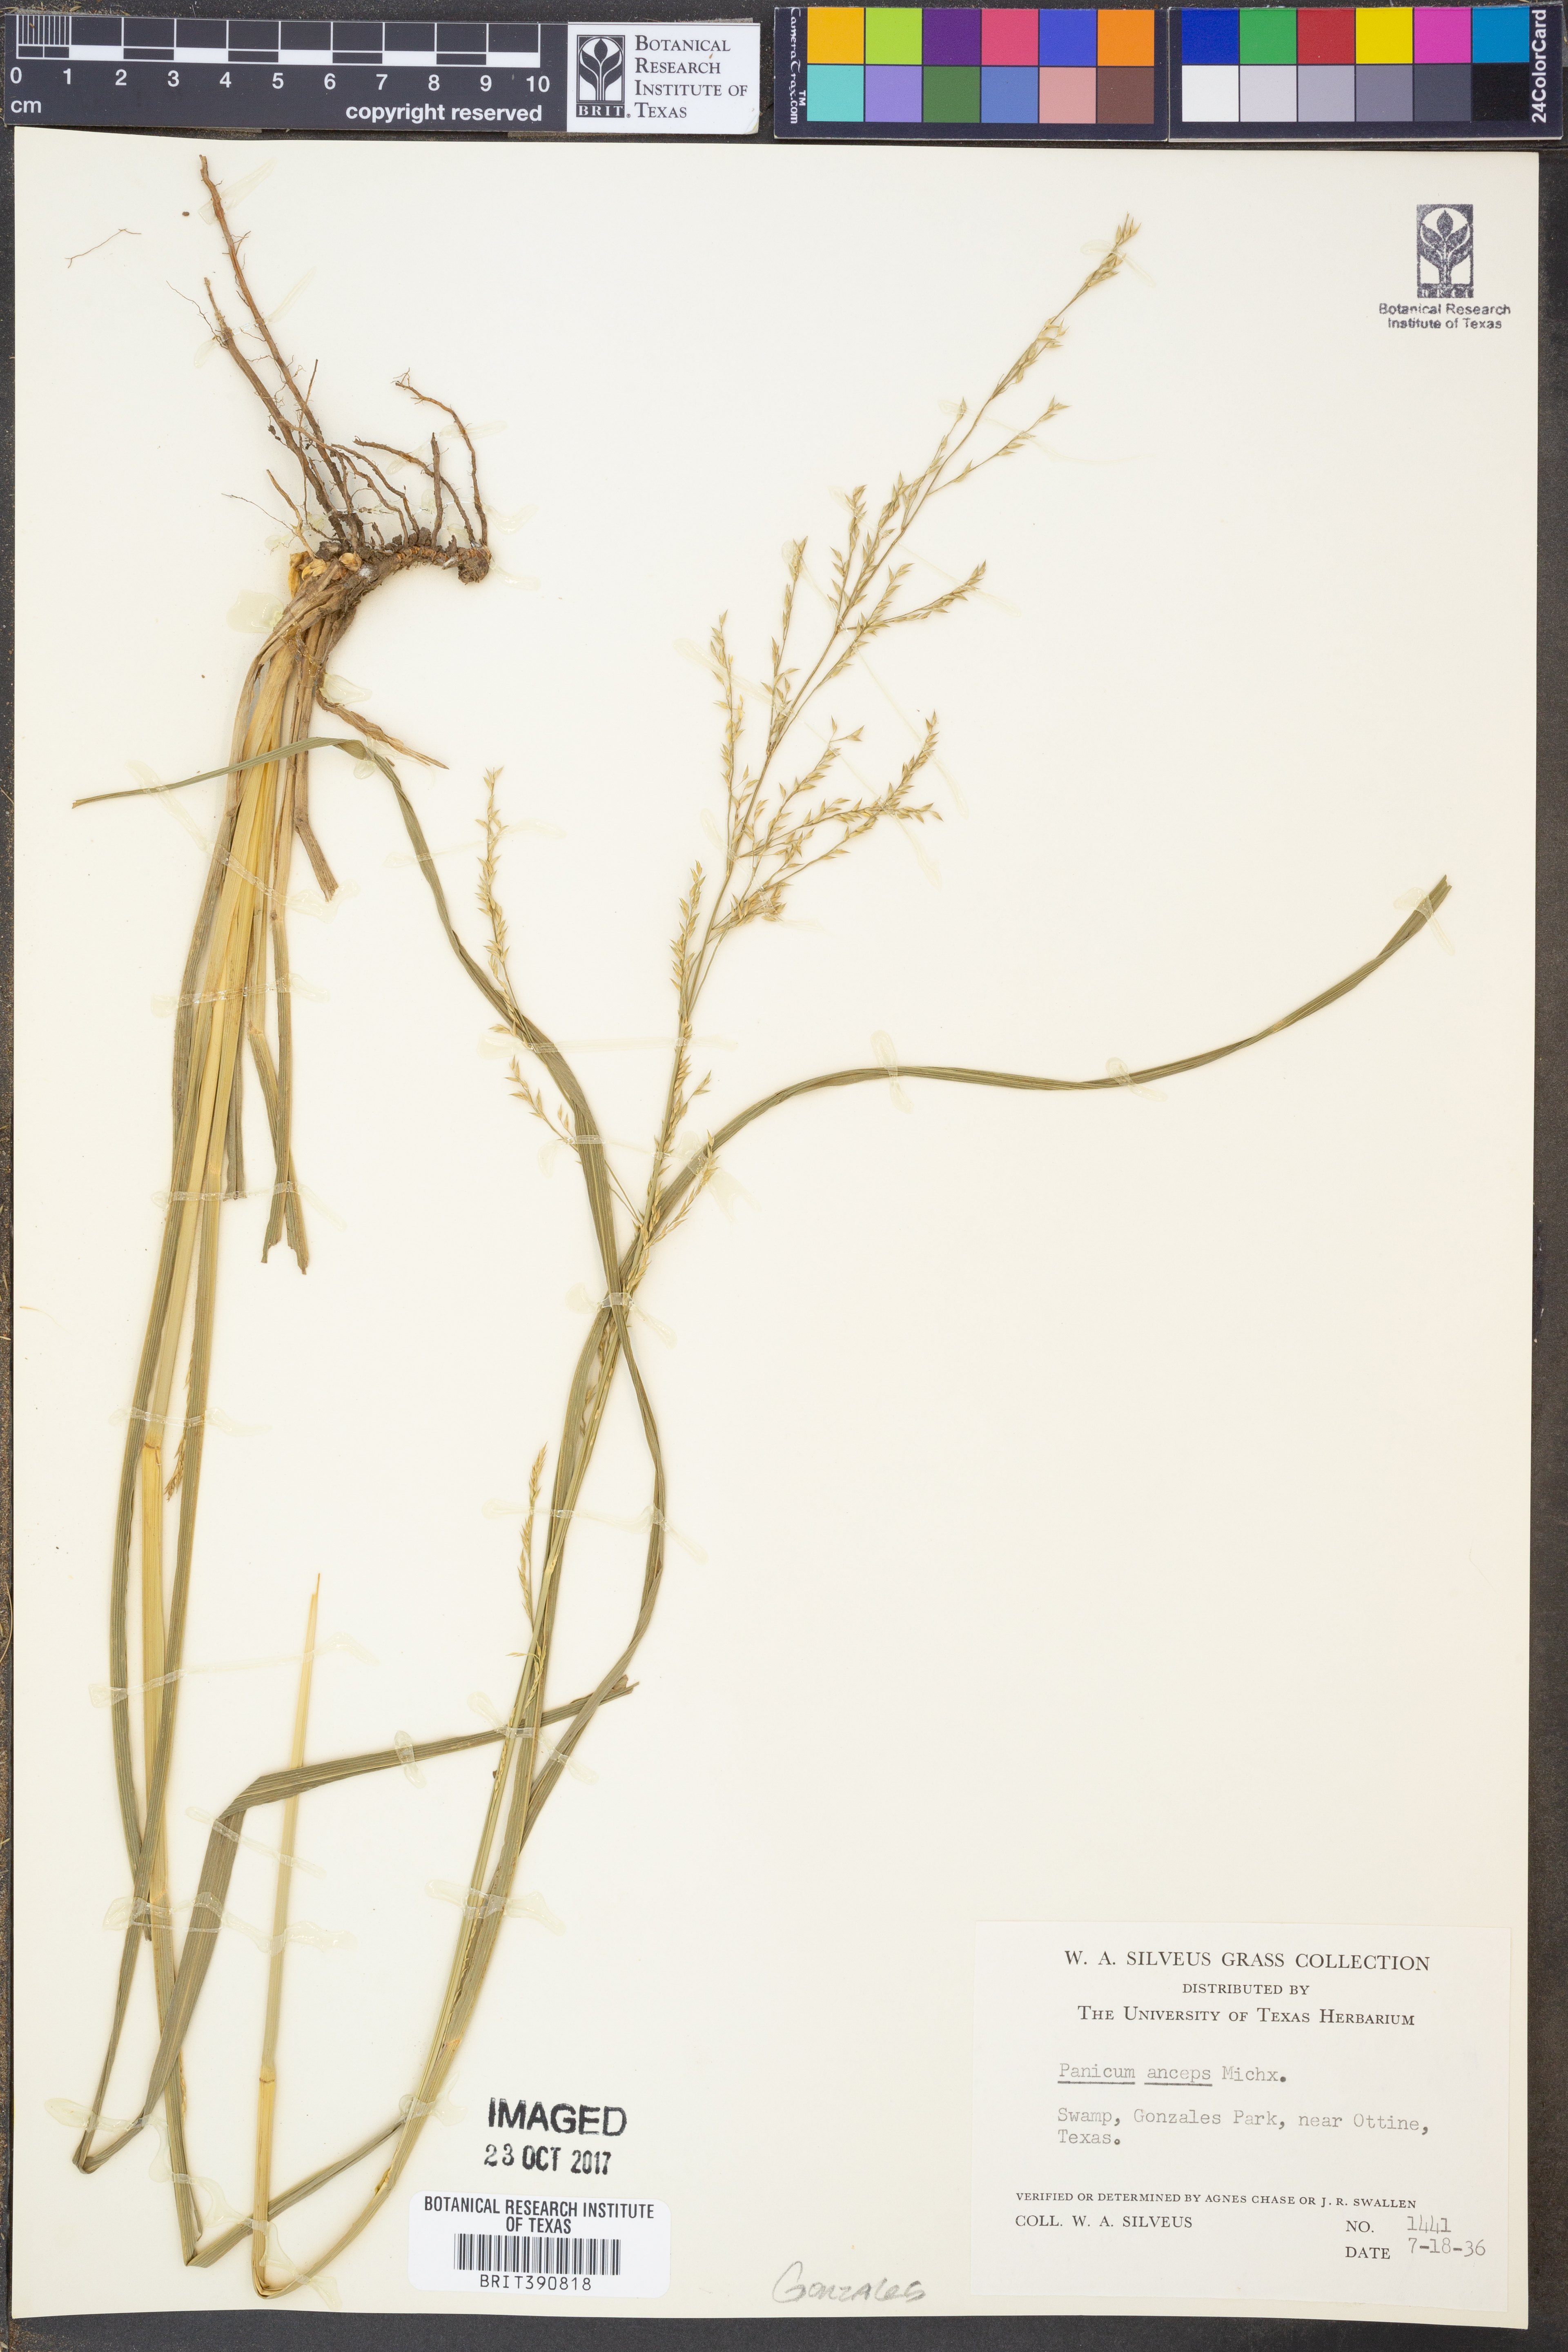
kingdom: Plantae
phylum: Tracheophyta
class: Liliopsida
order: Poales
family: Poaceae
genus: Coleataenia
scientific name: Coleataenia anceps
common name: Beaked panic grass
